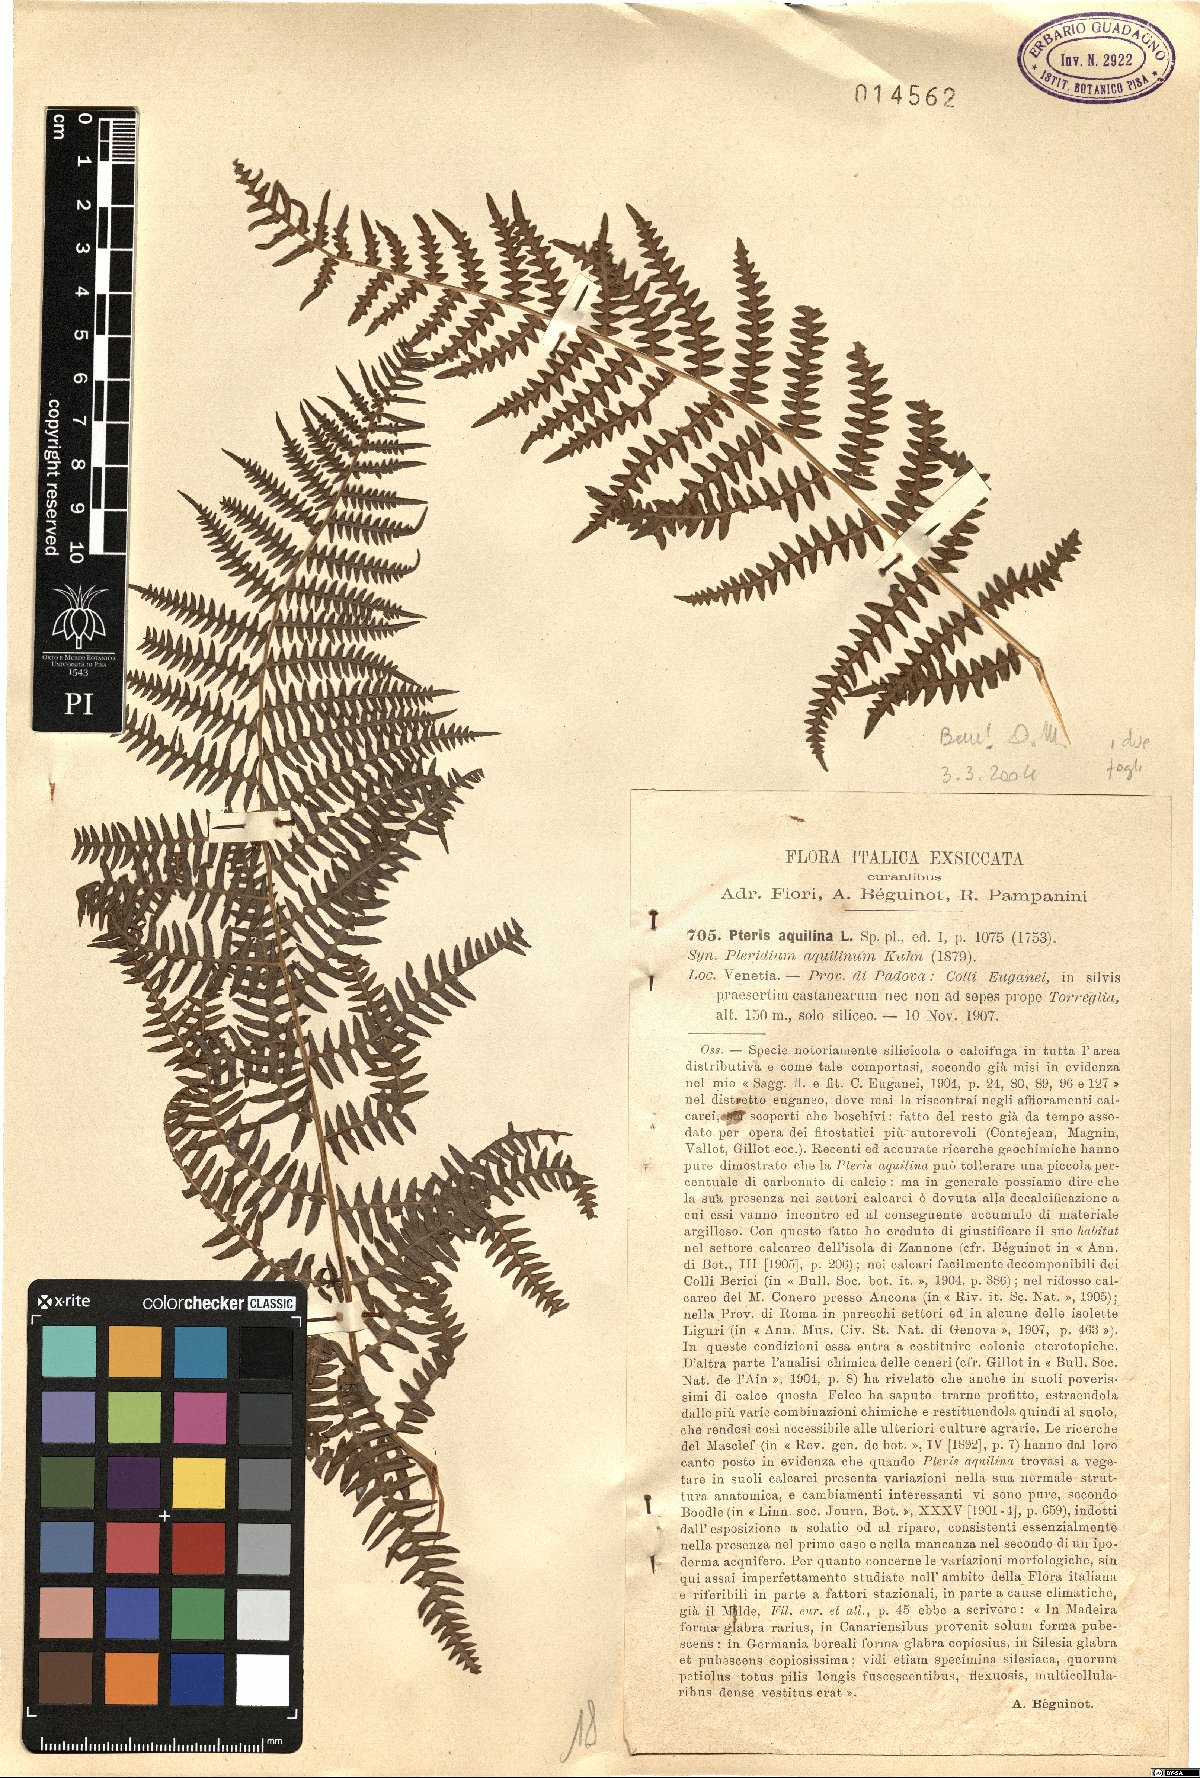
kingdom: Plantae
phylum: Tracheophyta
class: Polypodiopsida
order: Polypodiales
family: Dennstaedtiaceae
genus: Pteridium
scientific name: Pteridium aquilinum
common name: Bracken
